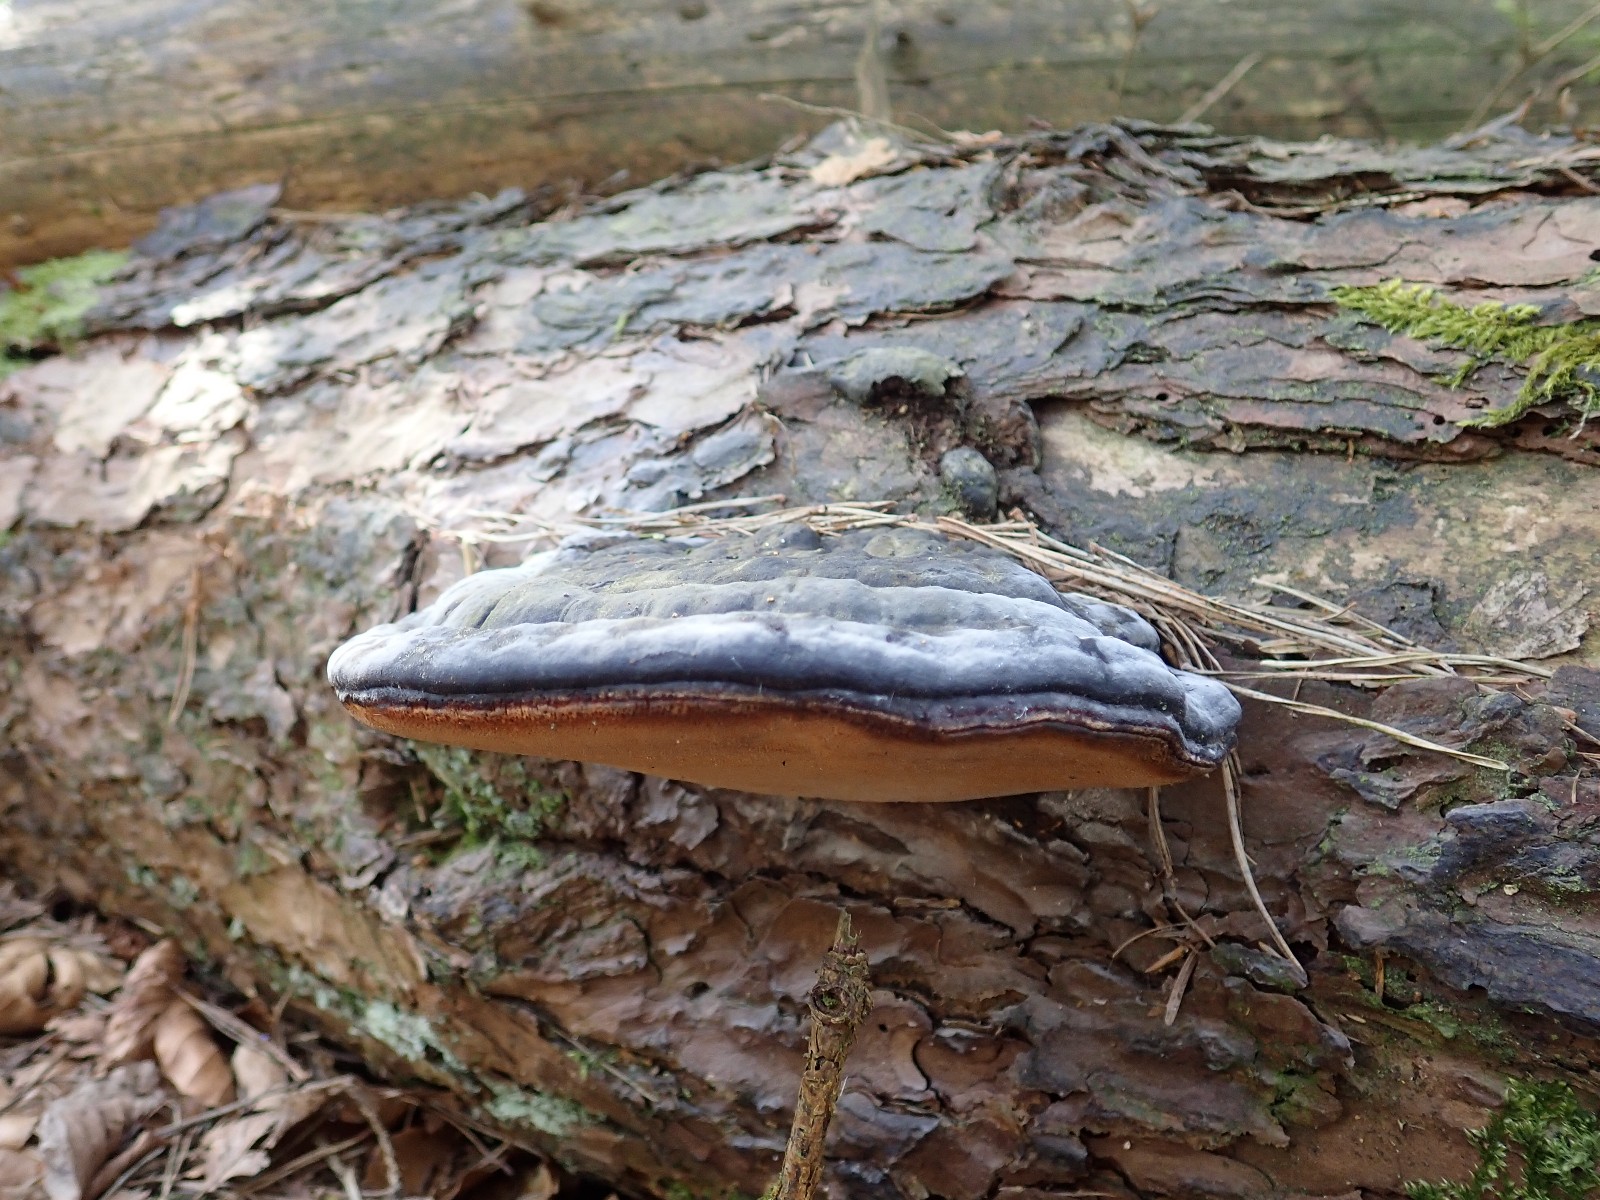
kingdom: Fungi
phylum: Basidiomycota
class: Agaricomycetes
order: Polyporales
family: Fomitopsidaceae
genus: Fomitopsis
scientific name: Fomitopsis pinicola
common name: randbæltet hovporesvamp
